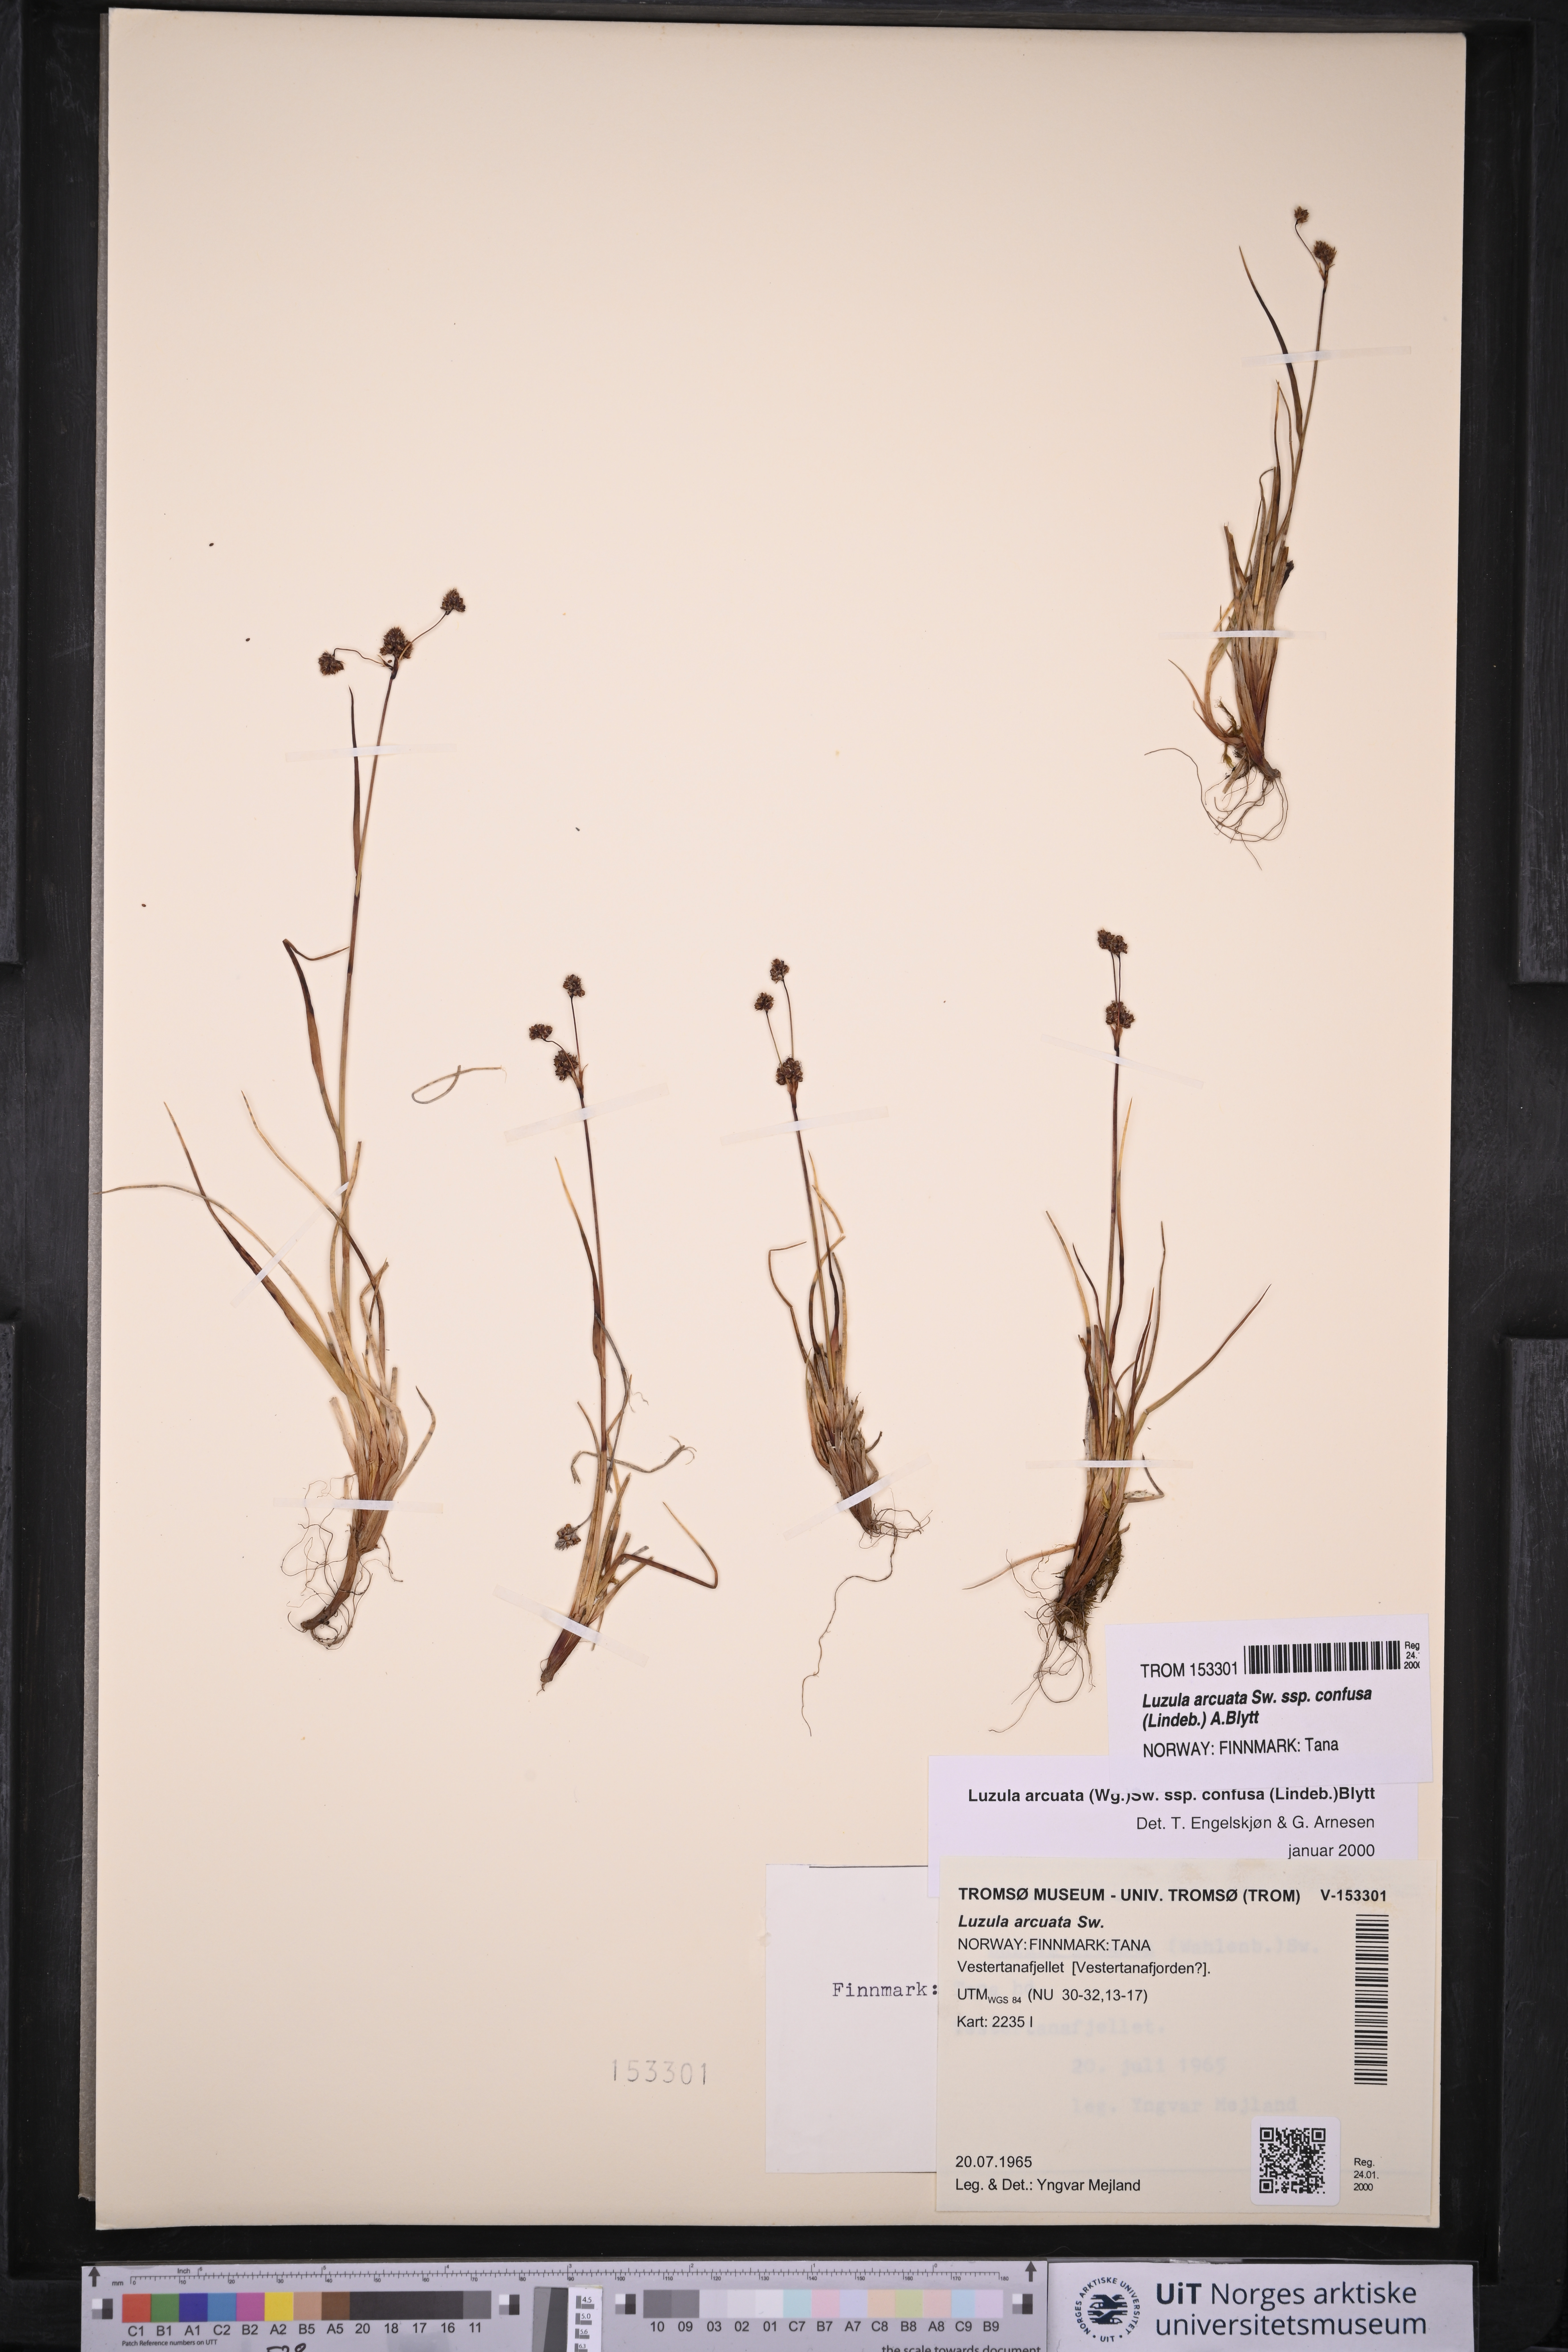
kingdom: Plantae
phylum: Tracheophyta
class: Liliopsida
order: Poales
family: Juncaceae
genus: Luzula
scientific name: Luzula confusa
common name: Northern wood rush
